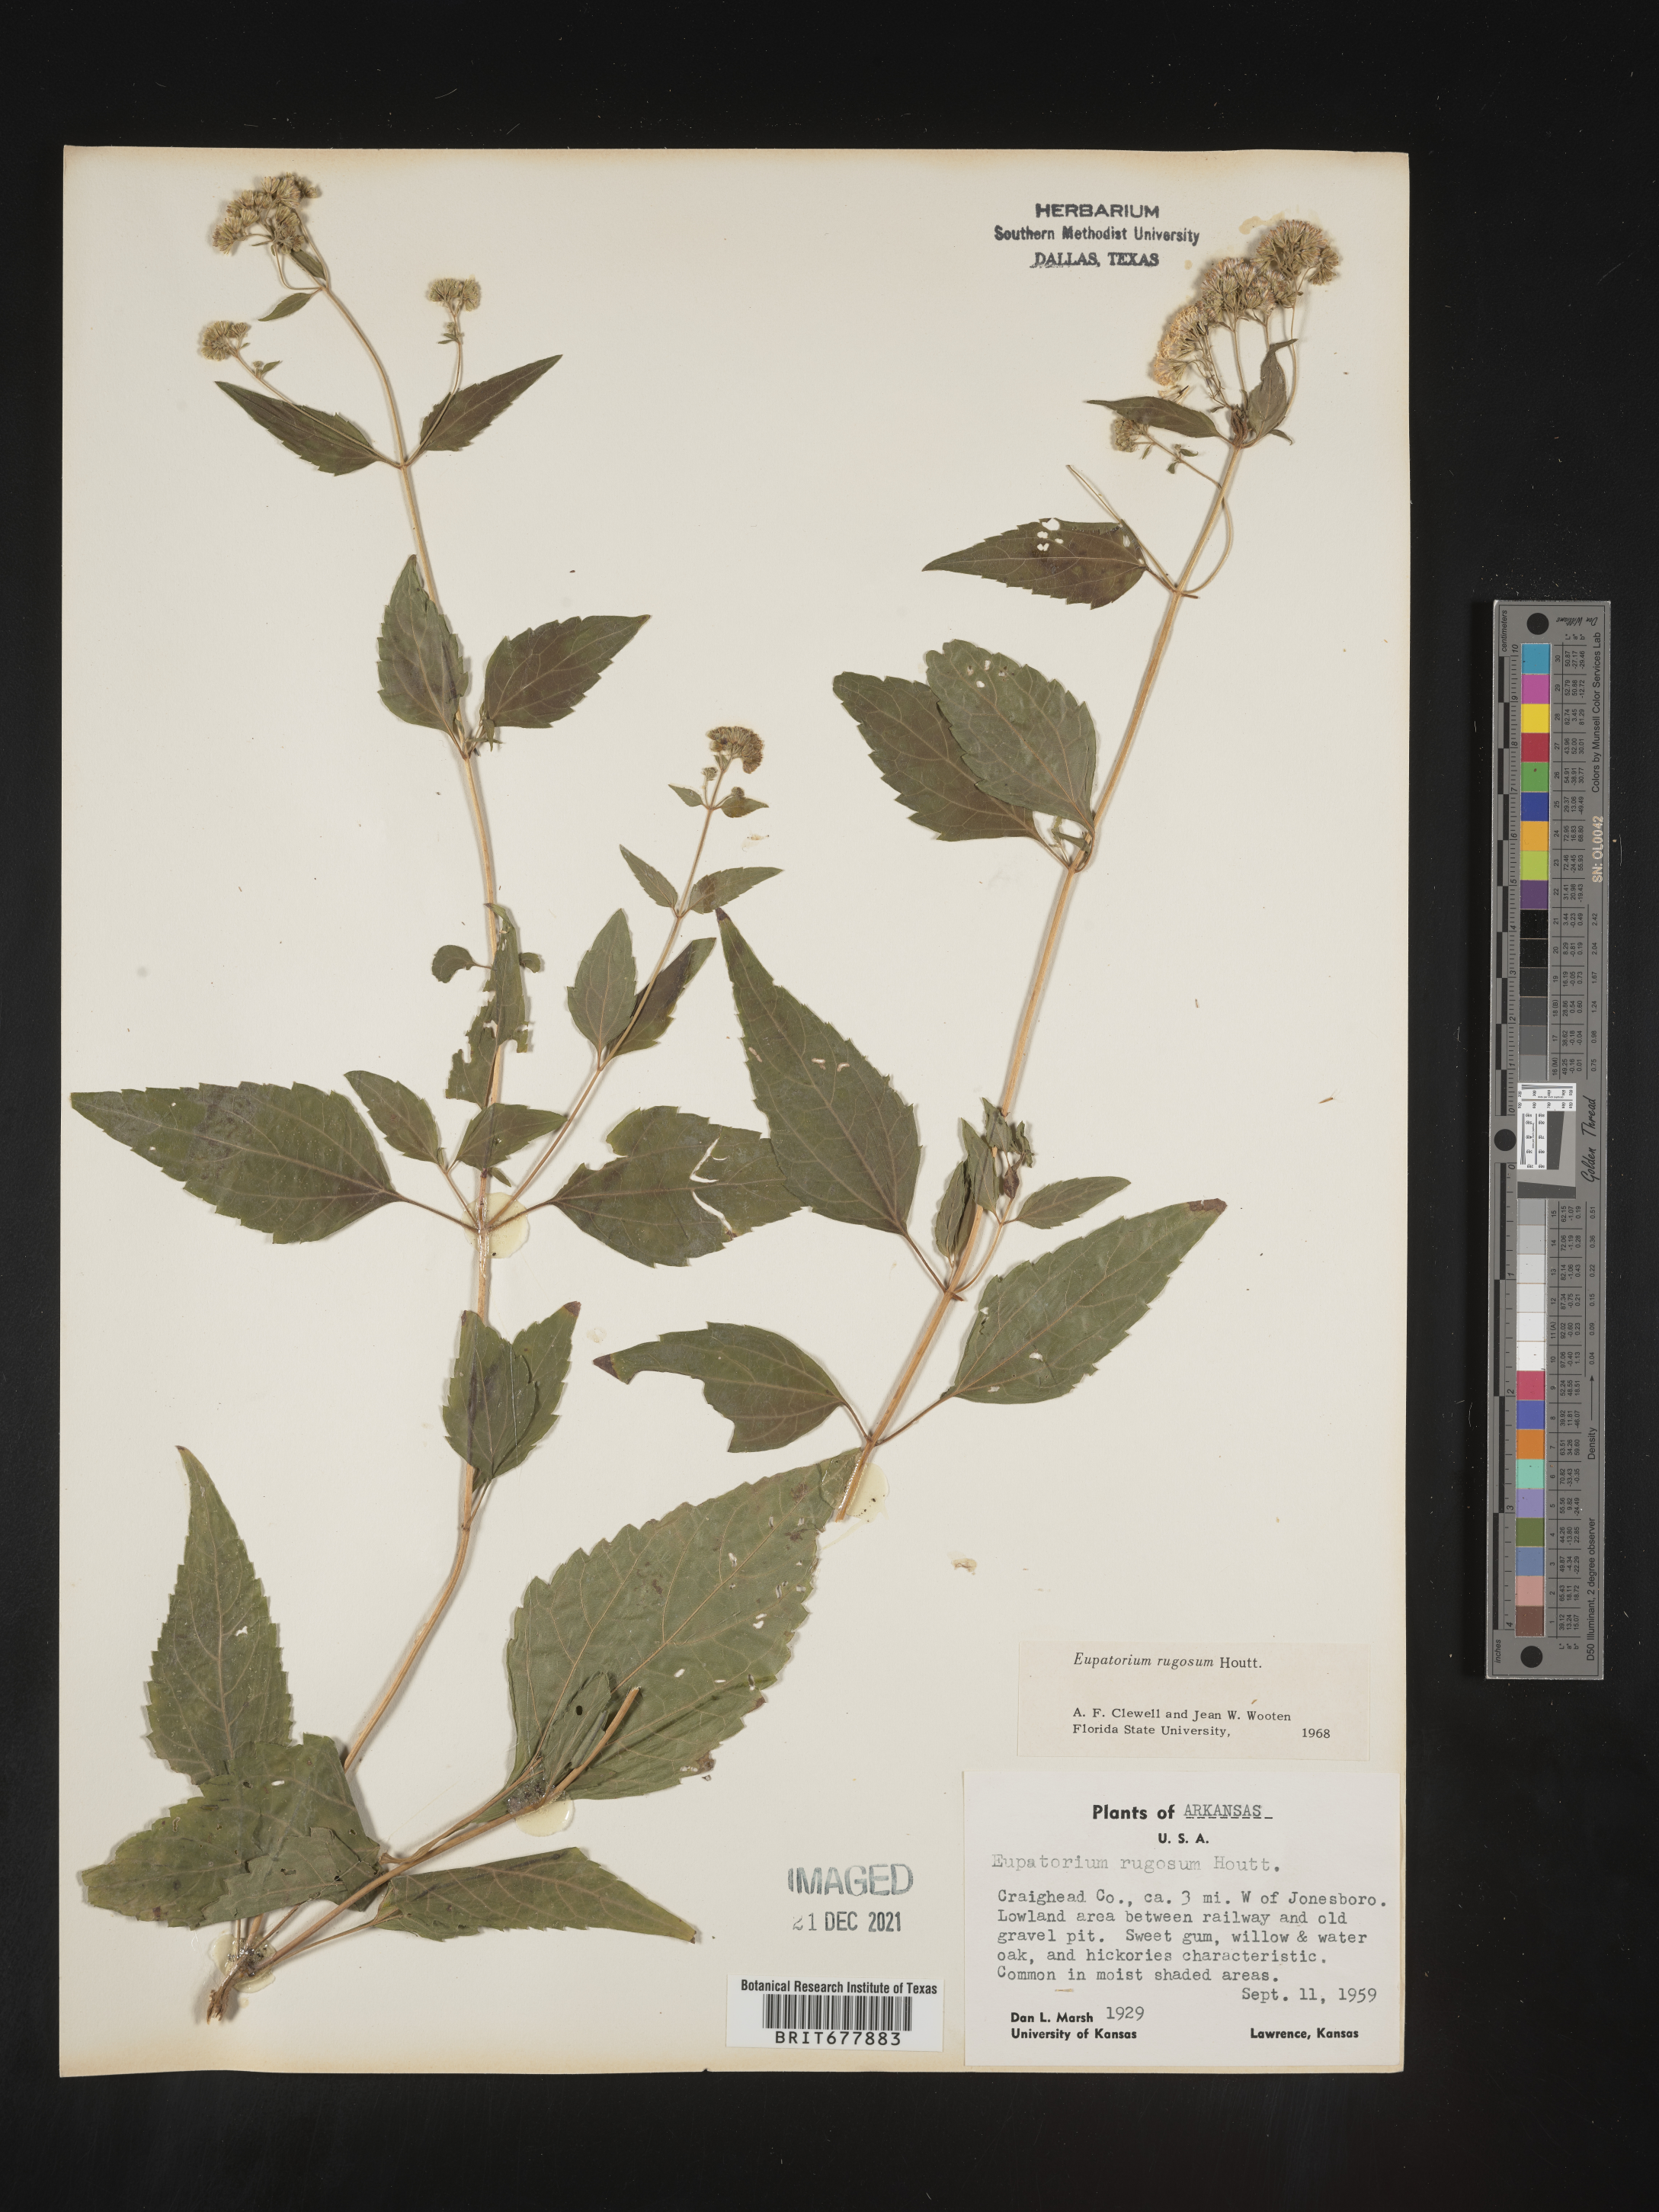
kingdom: Plantae
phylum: Tracheophyta
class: Magnoliopsida
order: Asterales
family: Asteraceae
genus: Ageratina
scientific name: Ageratina altissima
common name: White snakeroot
